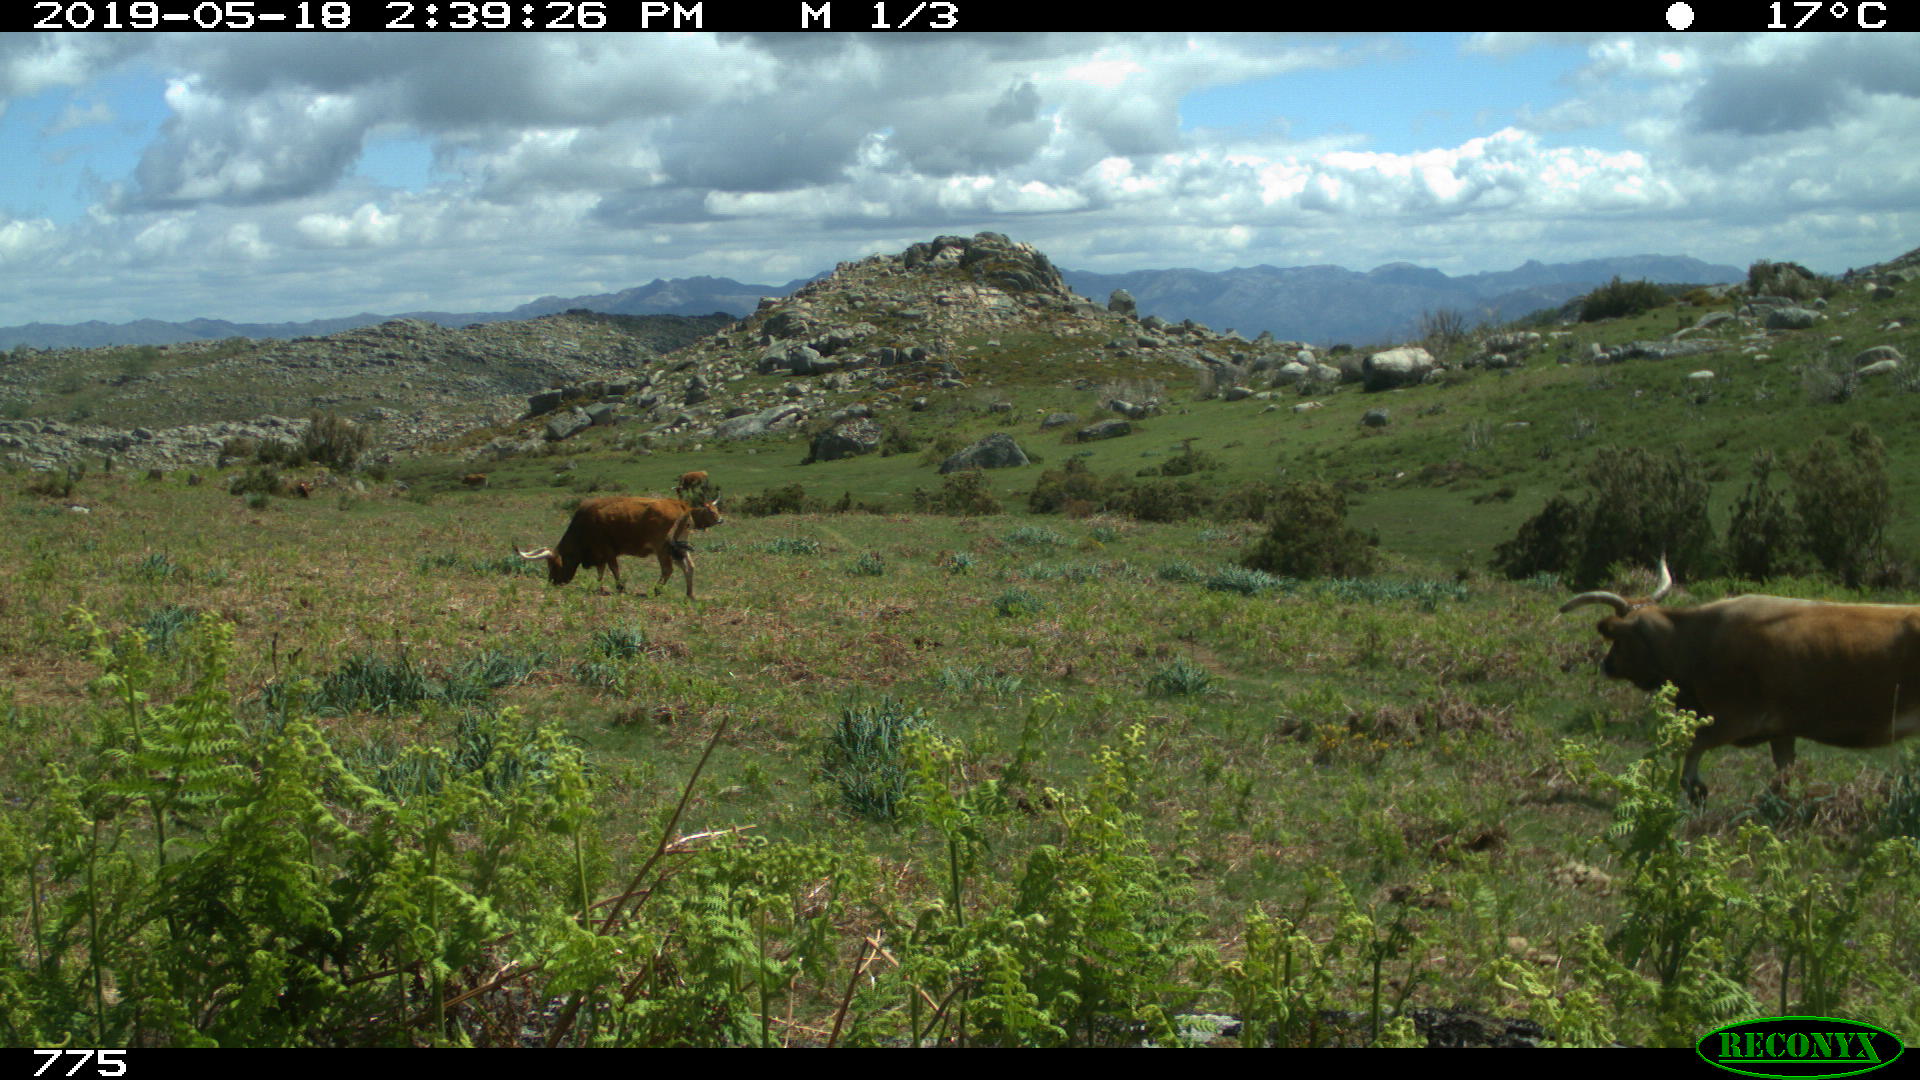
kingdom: Animalia
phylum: Chordata
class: Mammalia
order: Artiodactyla
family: Bovidae
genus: Bos
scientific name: Bos taurus
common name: Domesticated cattle
